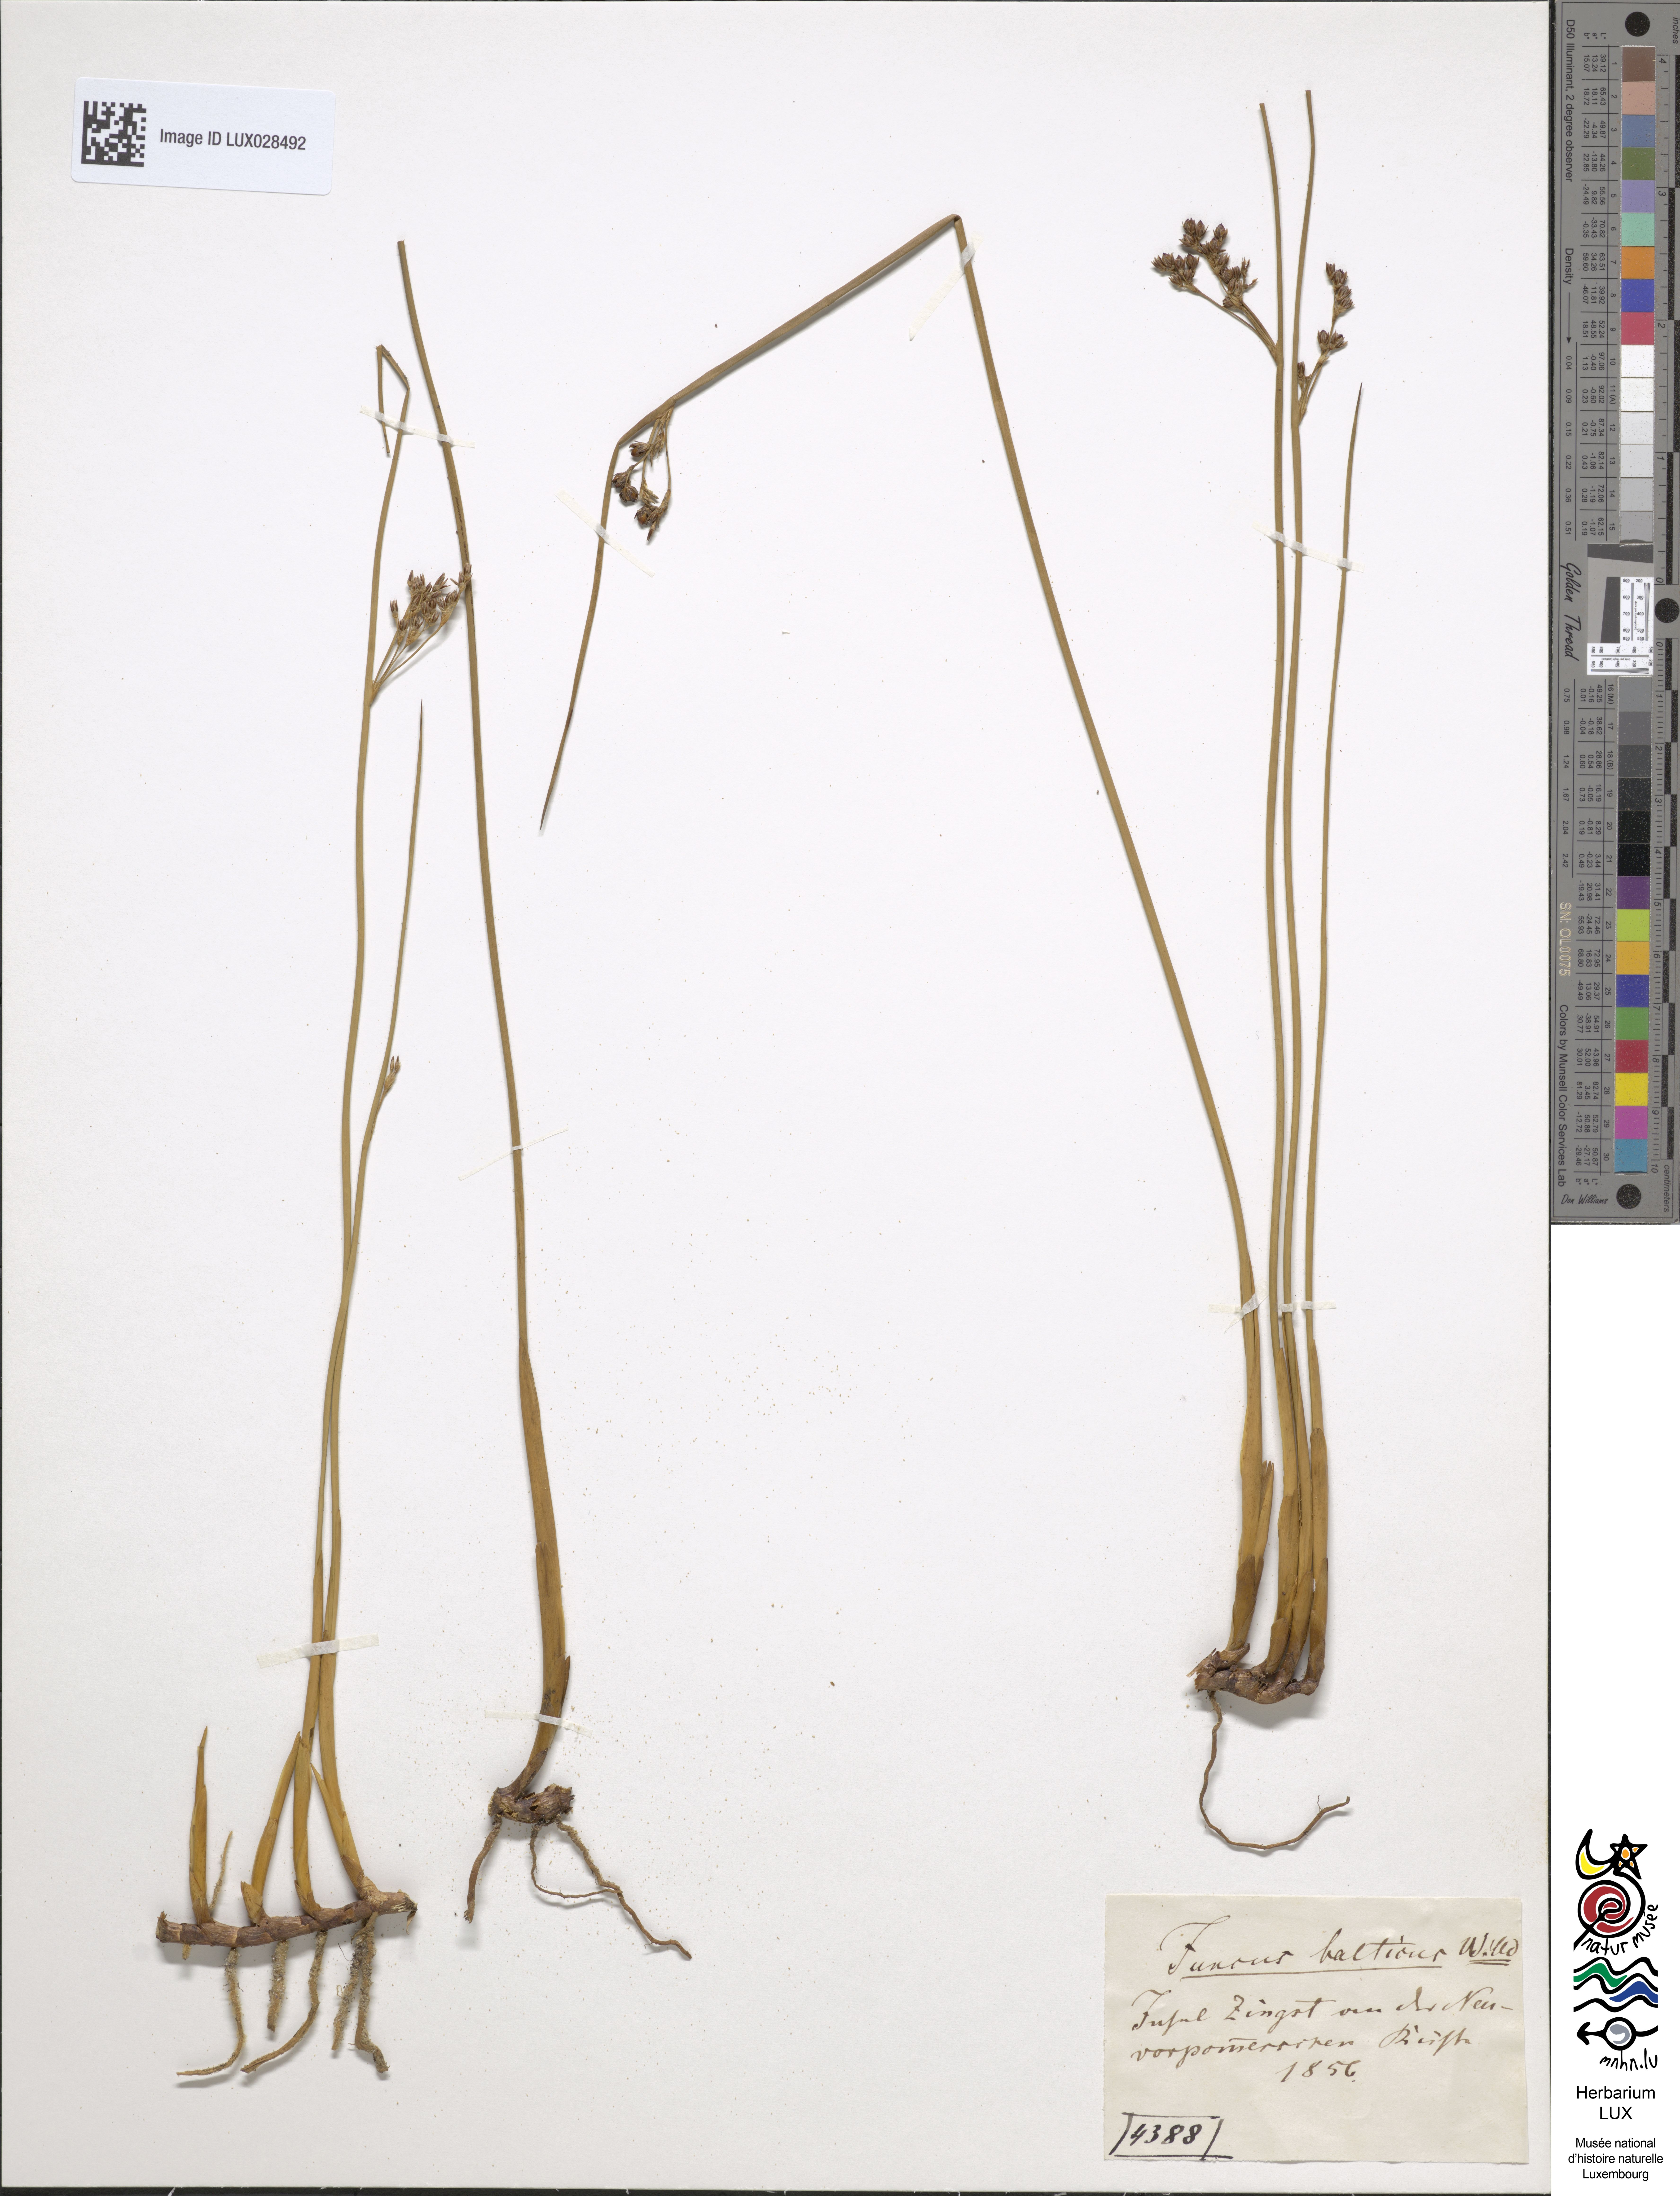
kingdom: Plantae
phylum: Tracheophyta
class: Liliopsida
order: Poales
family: Juncaceae
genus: Juncus
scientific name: Juncus balticus
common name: Baltic rush
